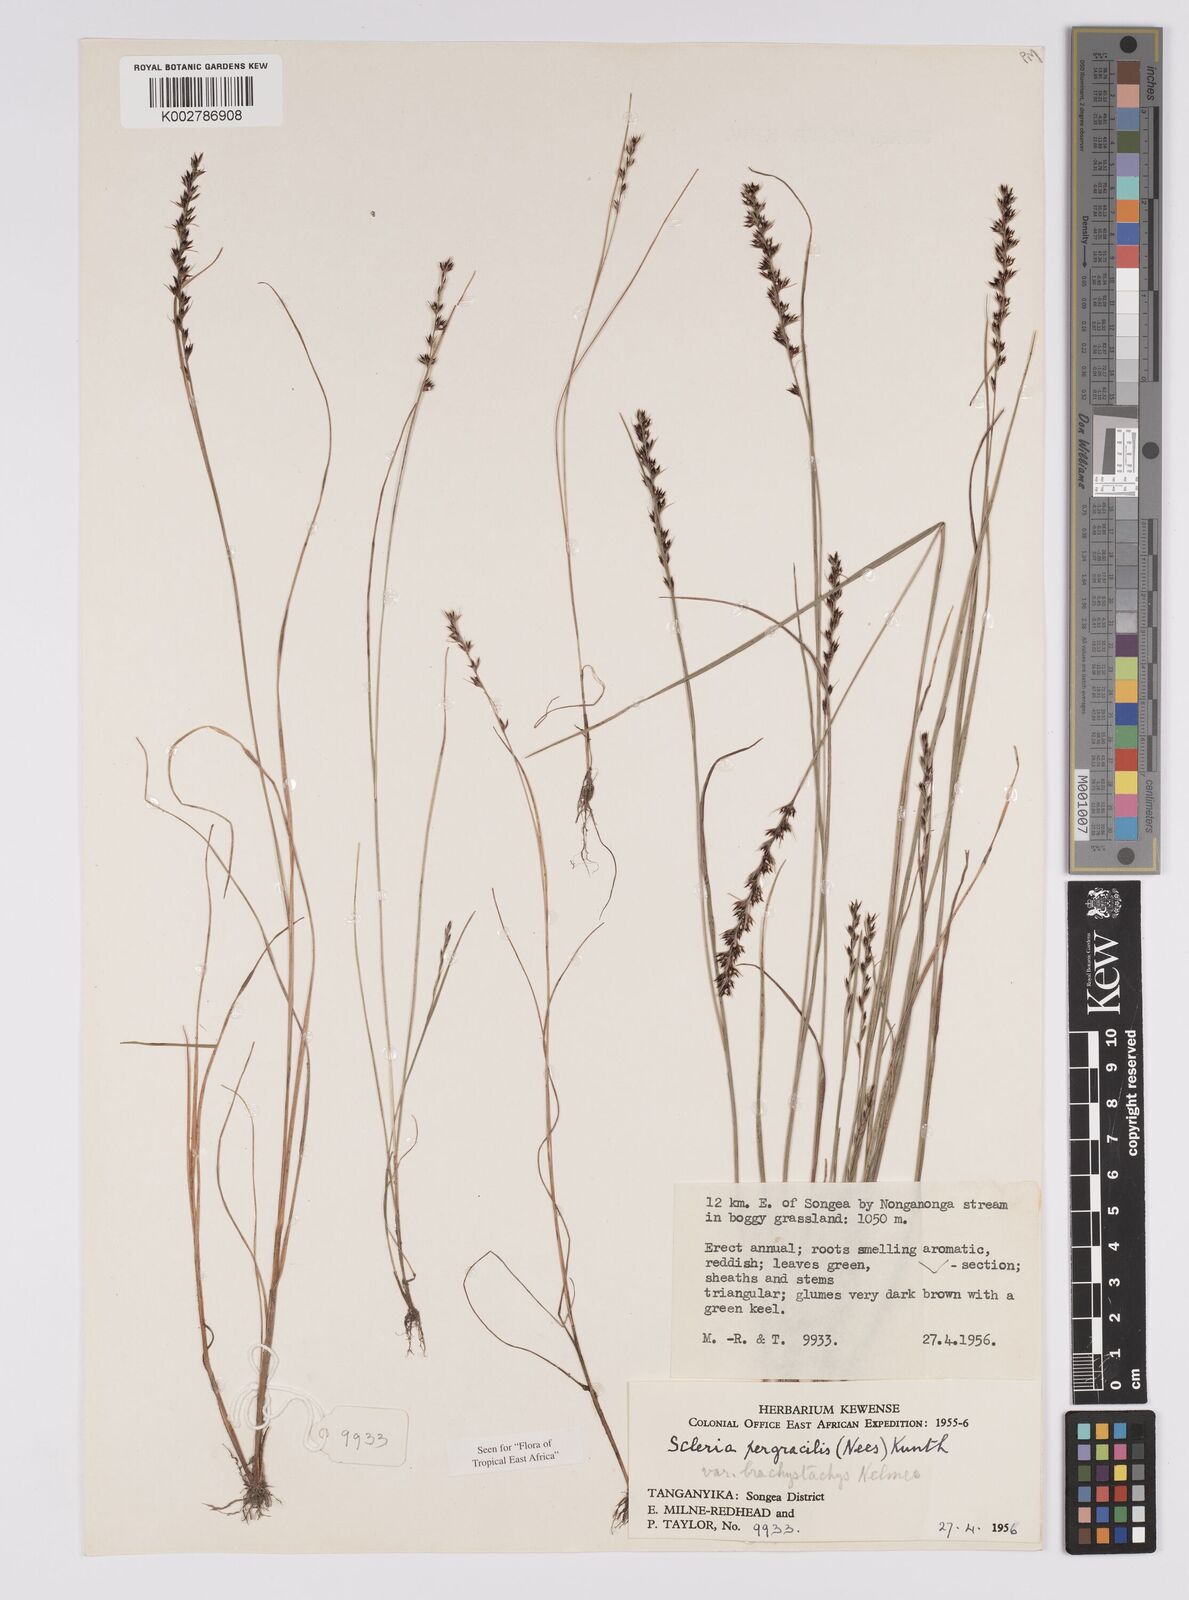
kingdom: Plantae
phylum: Tracheophyta
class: Liliopsida
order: Poales
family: Cyperaceae
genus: Scleria
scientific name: Scleria pergracilis
